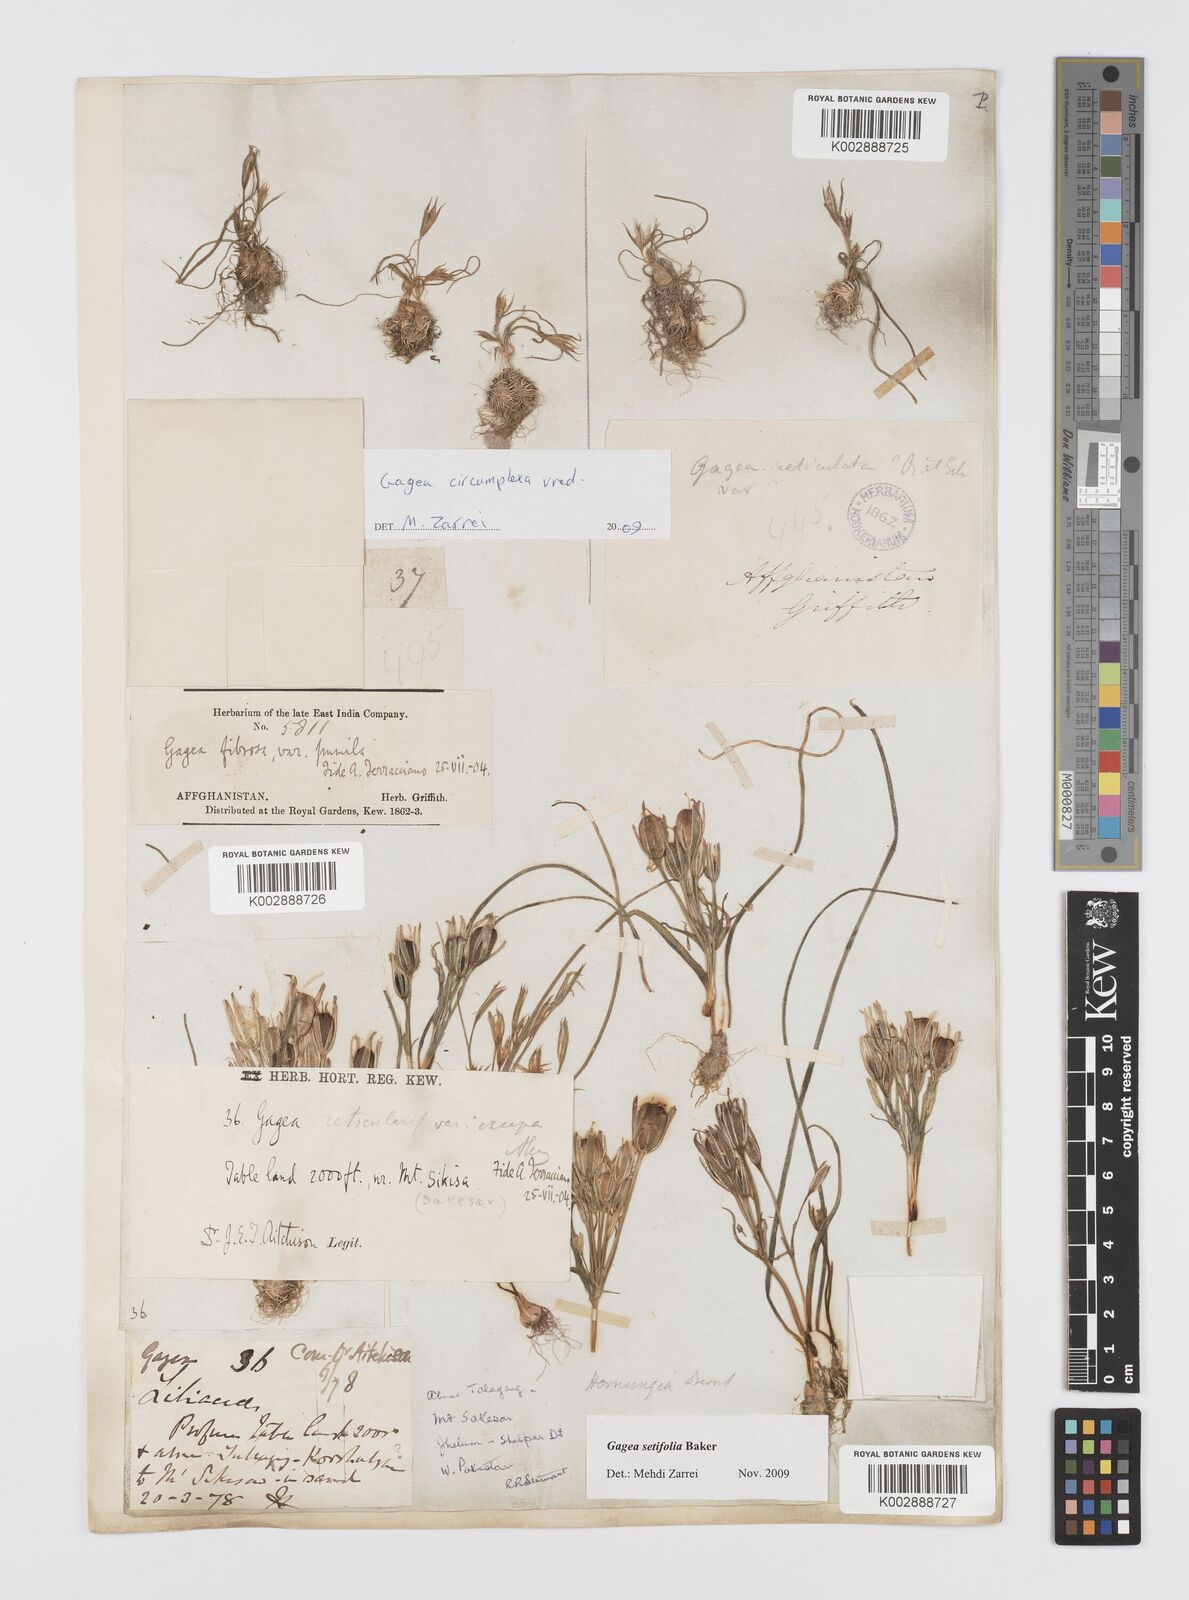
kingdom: Plantae
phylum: Tracheophyta
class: Liliopsida
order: Liliales
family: Liliaceae
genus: Gagea
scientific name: Gagea circumplexa
